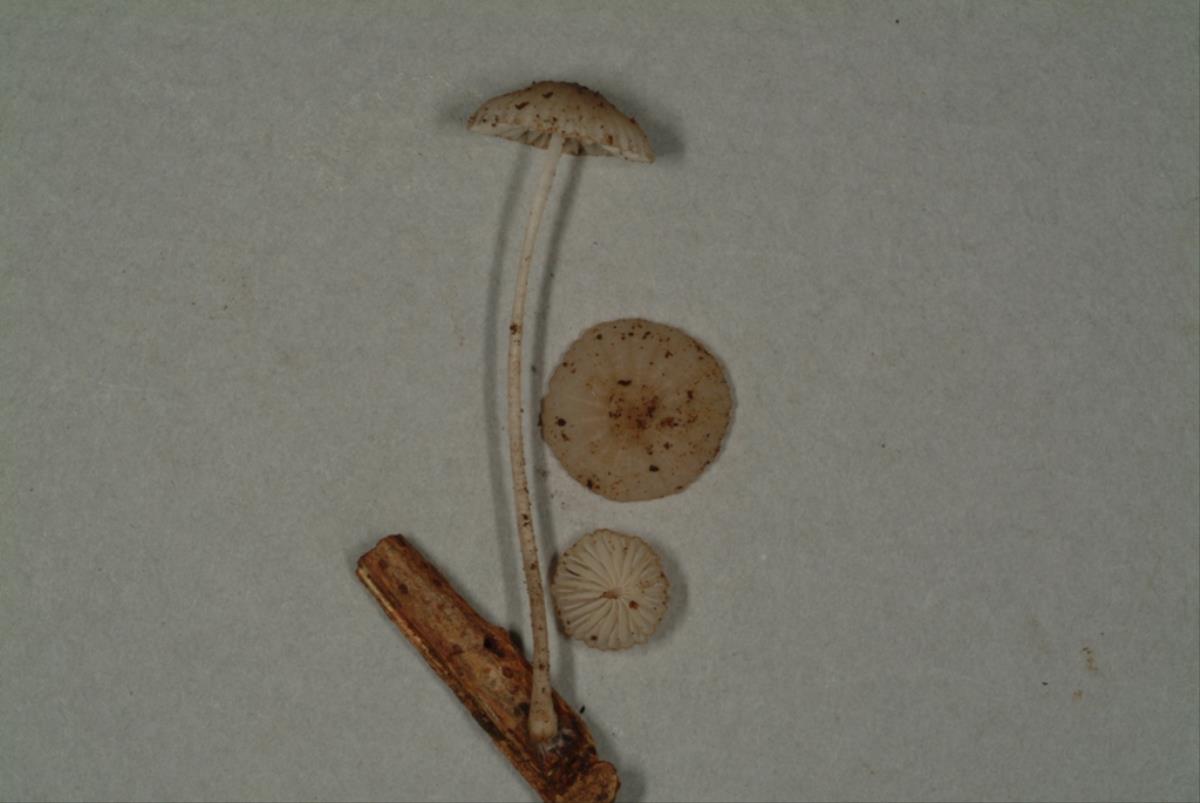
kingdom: Fungi
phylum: Basidiomycota
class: Agaricomycetes
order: Agaricales
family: Mycenaceae
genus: Mycena
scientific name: Mycena
